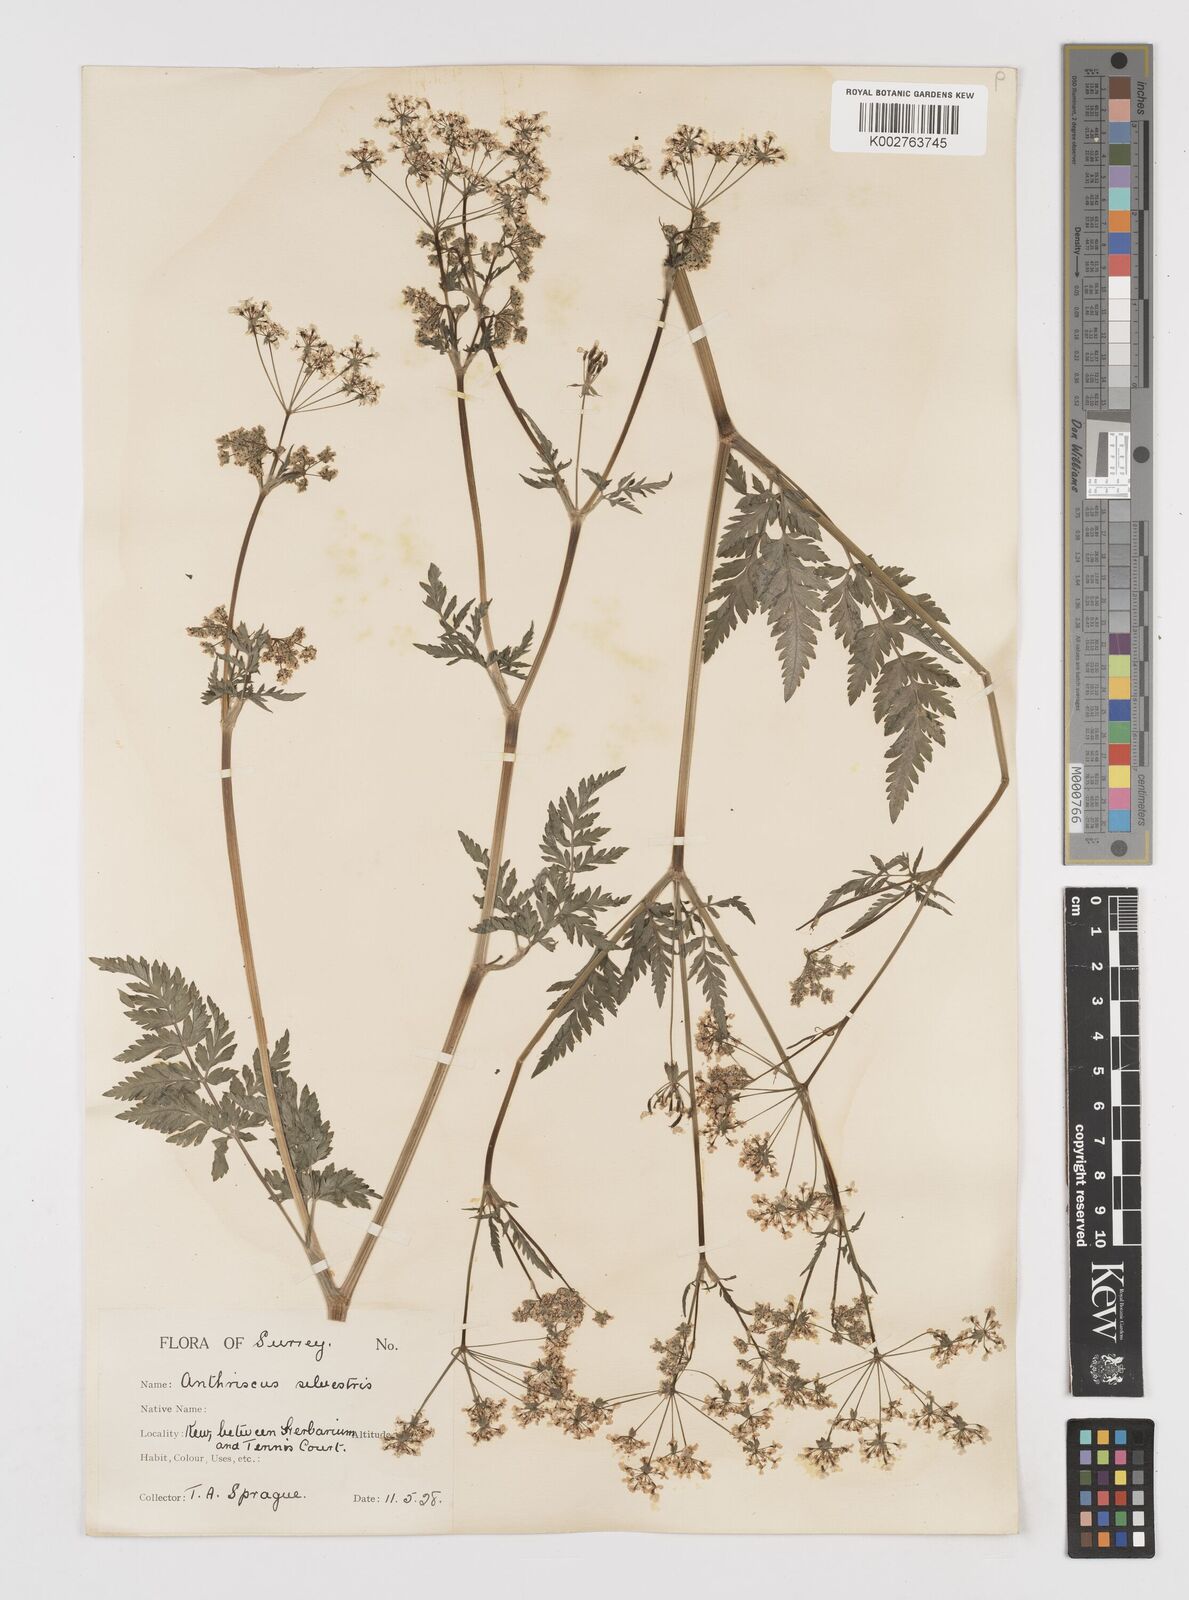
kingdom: Plantae
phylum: Tracheophyta
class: Magnoliopsida
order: Apiales
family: Apiaceae
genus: Anthriscus
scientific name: Anthriscus sylvestris
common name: Cow parsley
